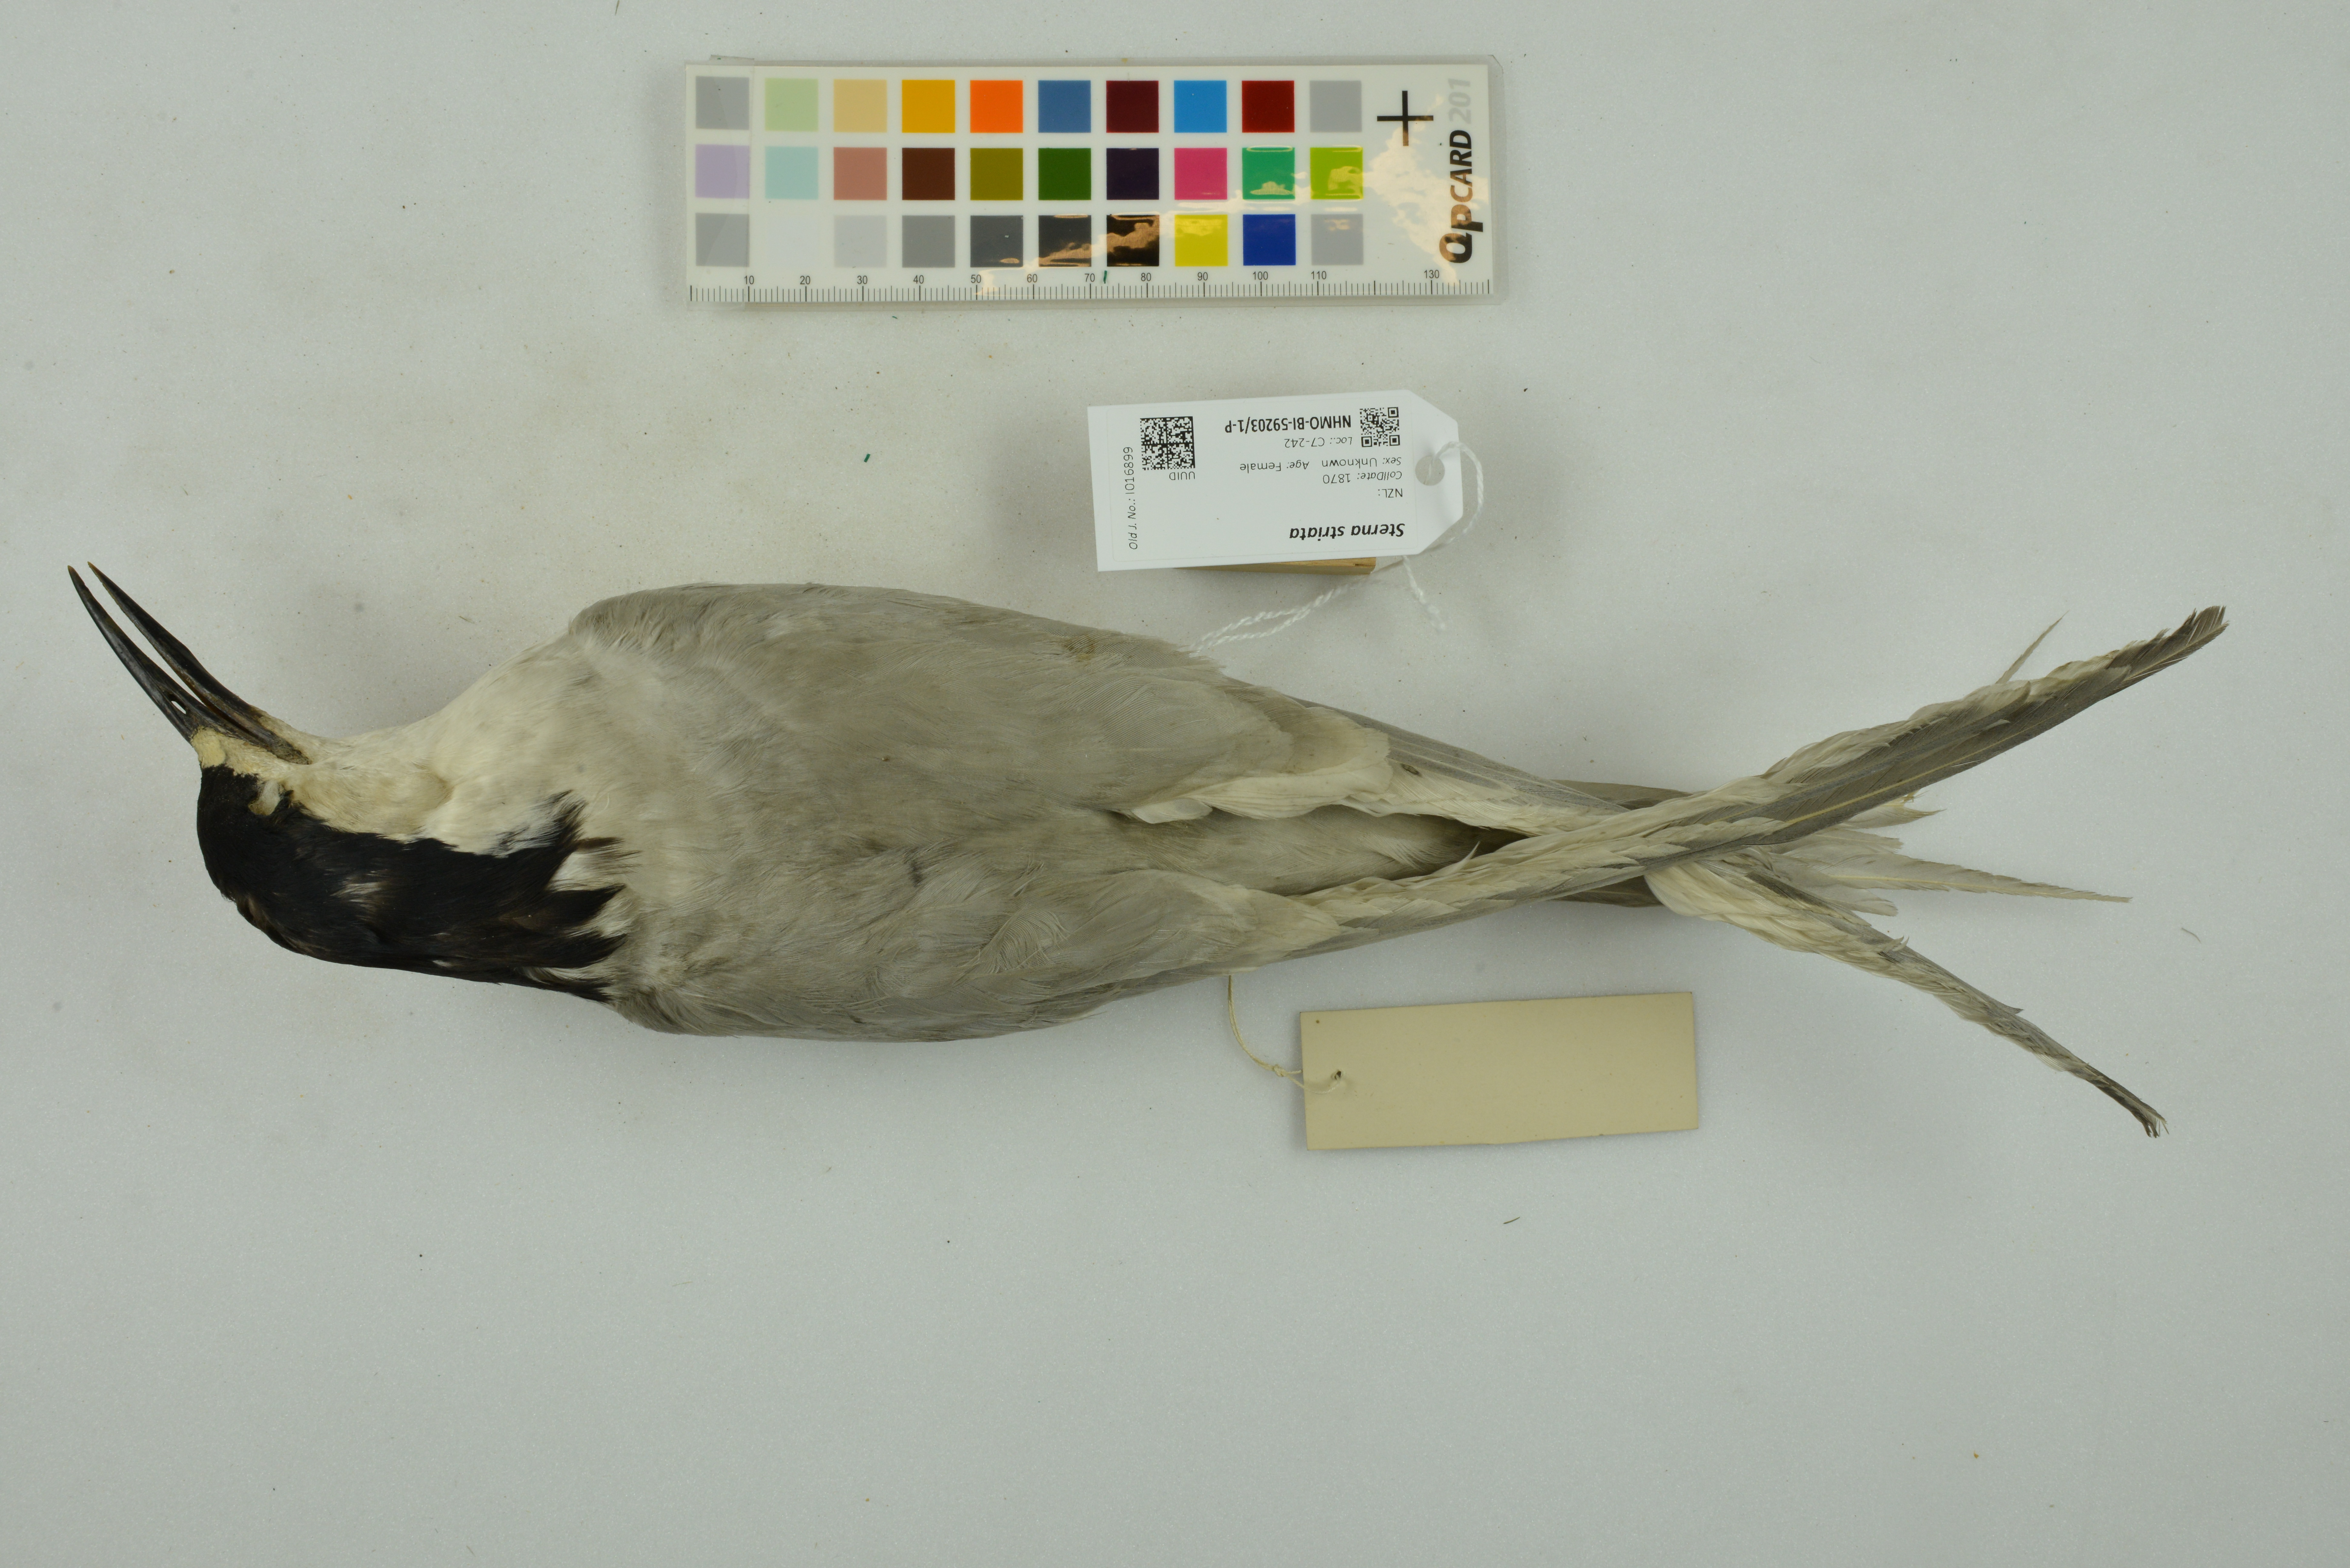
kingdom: Animalia
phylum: Chordata
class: Aves
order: Charadriiformes
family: Laridae
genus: Sterna
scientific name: Sterna striata
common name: White-fronted tern
